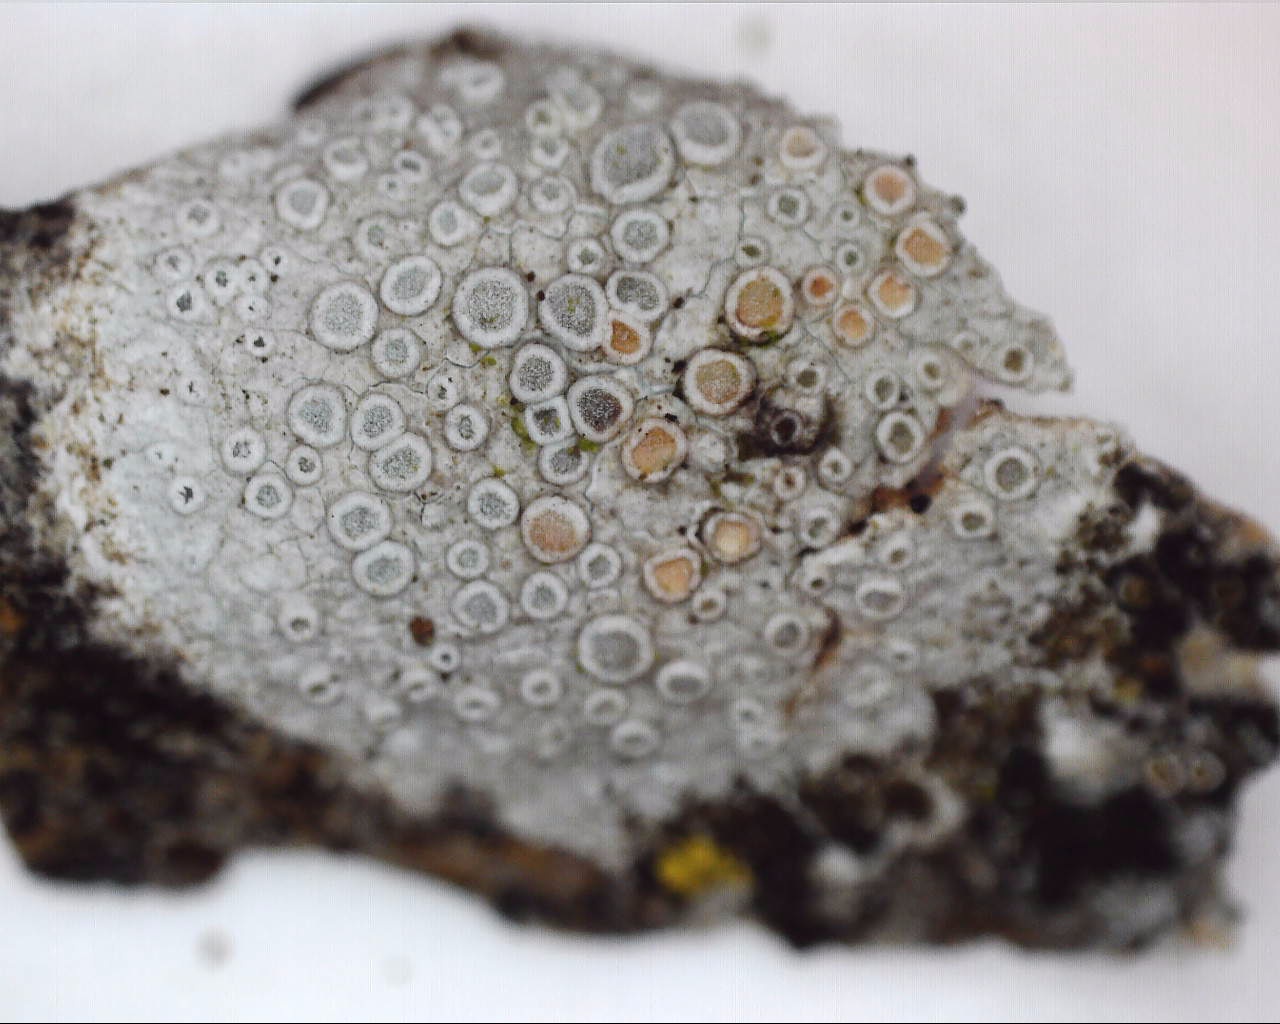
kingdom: Fungi
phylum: Ascomycota
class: Lecanoromycetes
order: Lecanorales
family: Lecanoraceae
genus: Glaucomaria
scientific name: Glaucomaria carpinea
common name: hviddugget kantskivelav
